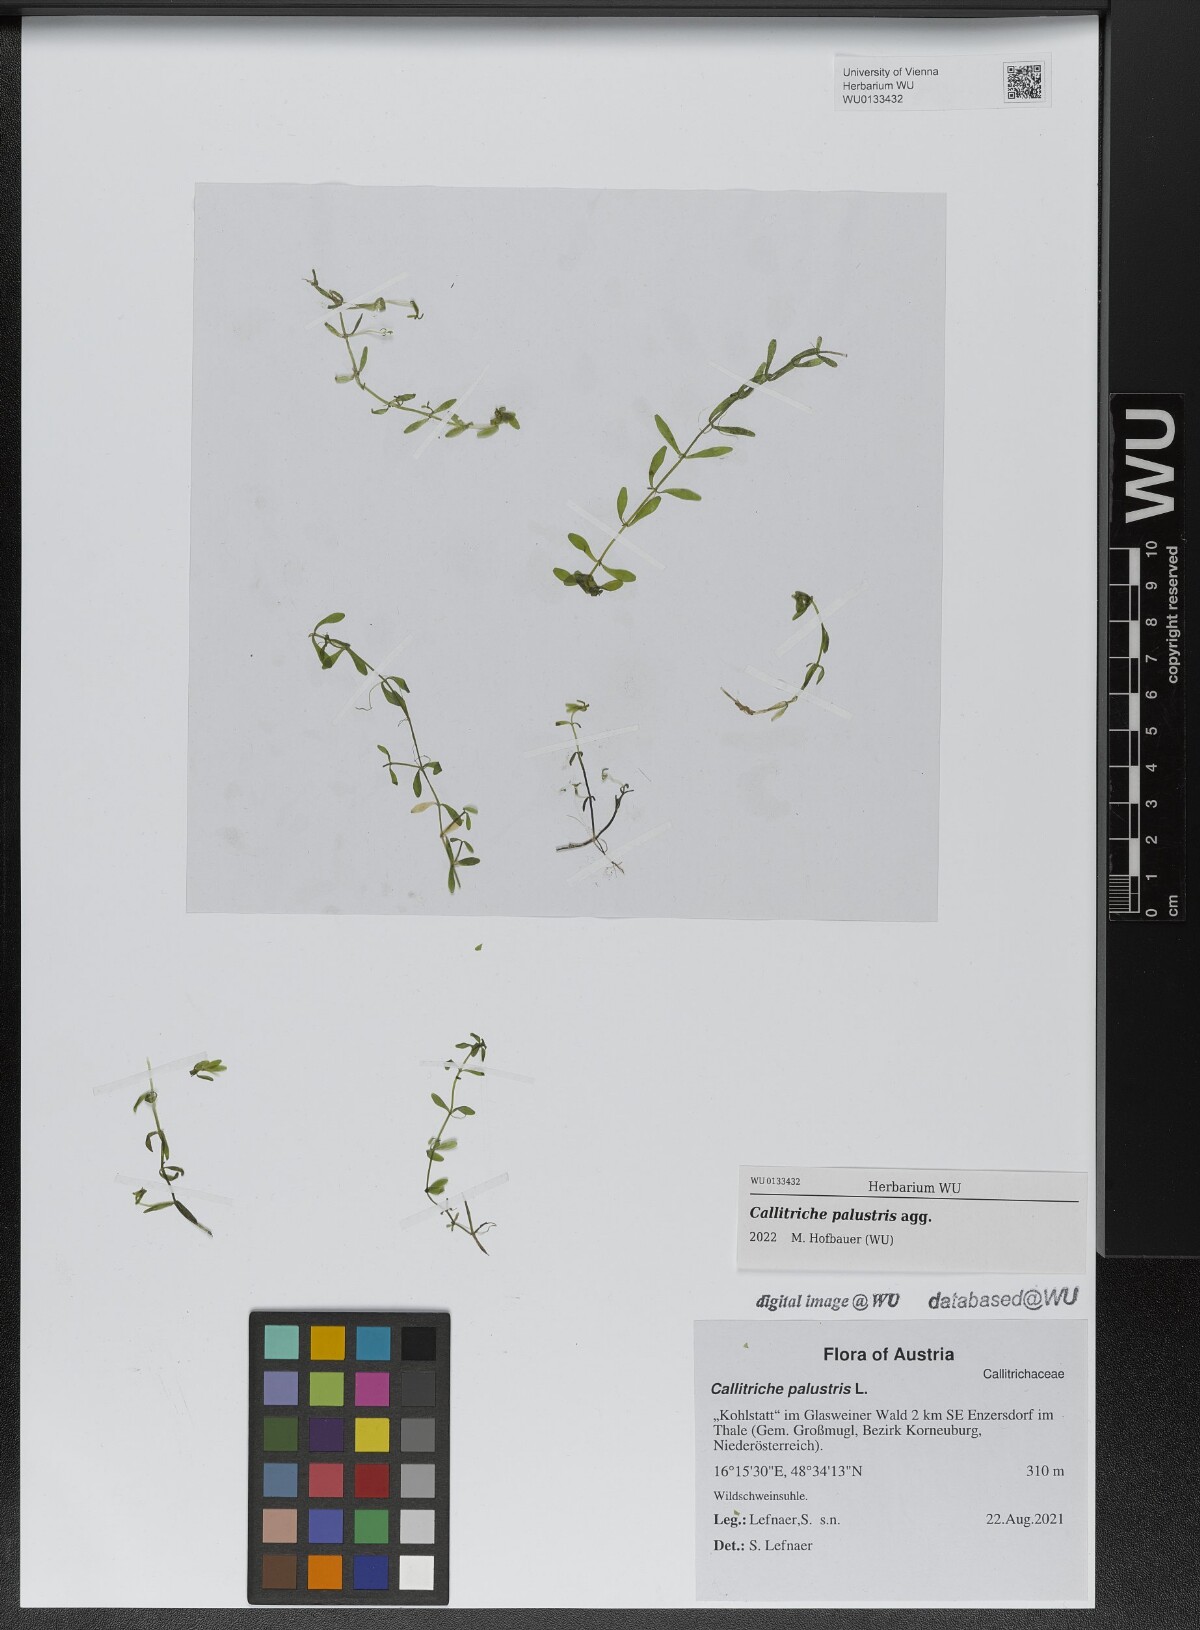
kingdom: Plantae
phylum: Tracheophyta
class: Magnoliopsida
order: Lamiales
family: Plantaginaceae
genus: Callitriche
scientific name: Callitriche palustris
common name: Spring water-starwort
